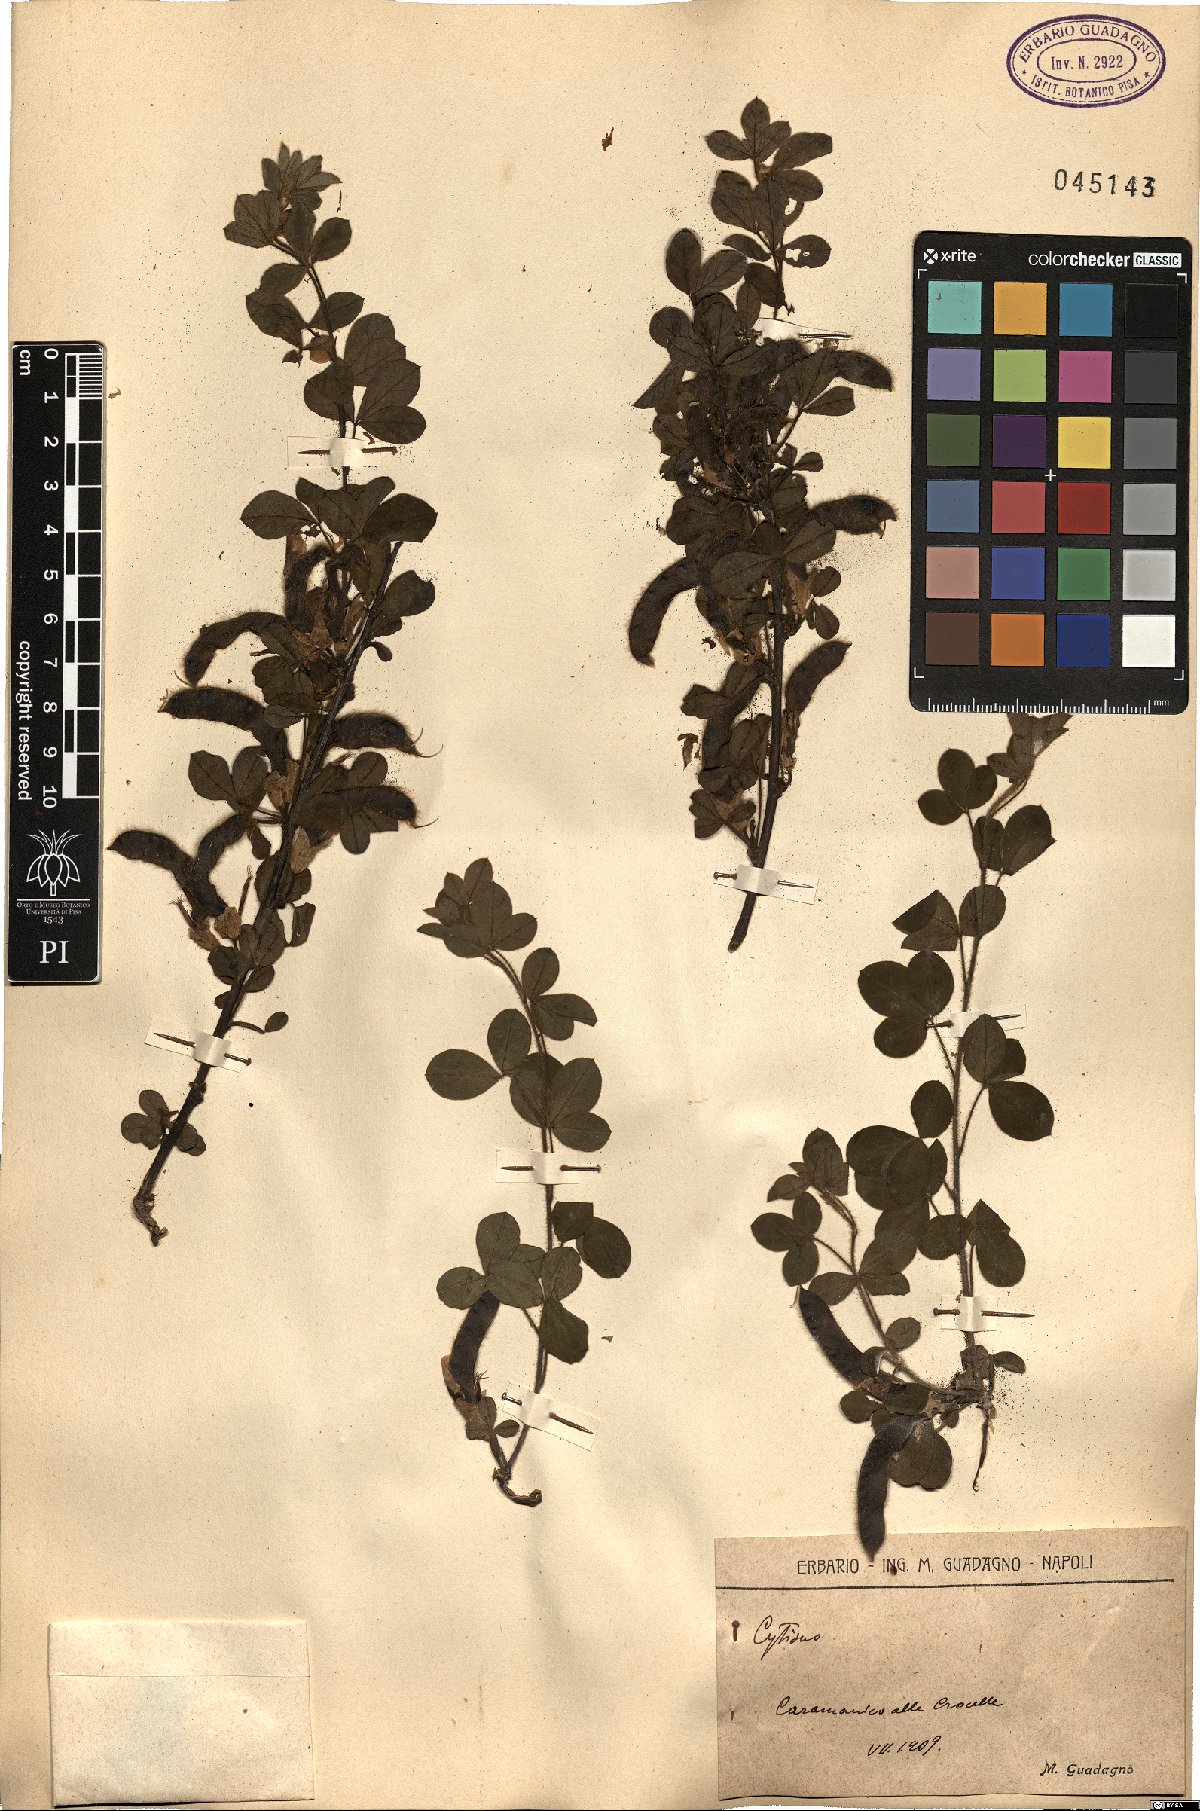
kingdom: Plantae
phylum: Tracheophyta
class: Magnoliopsida
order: Fabales
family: Fabaceae
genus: Cytisus
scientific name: Cytisus
